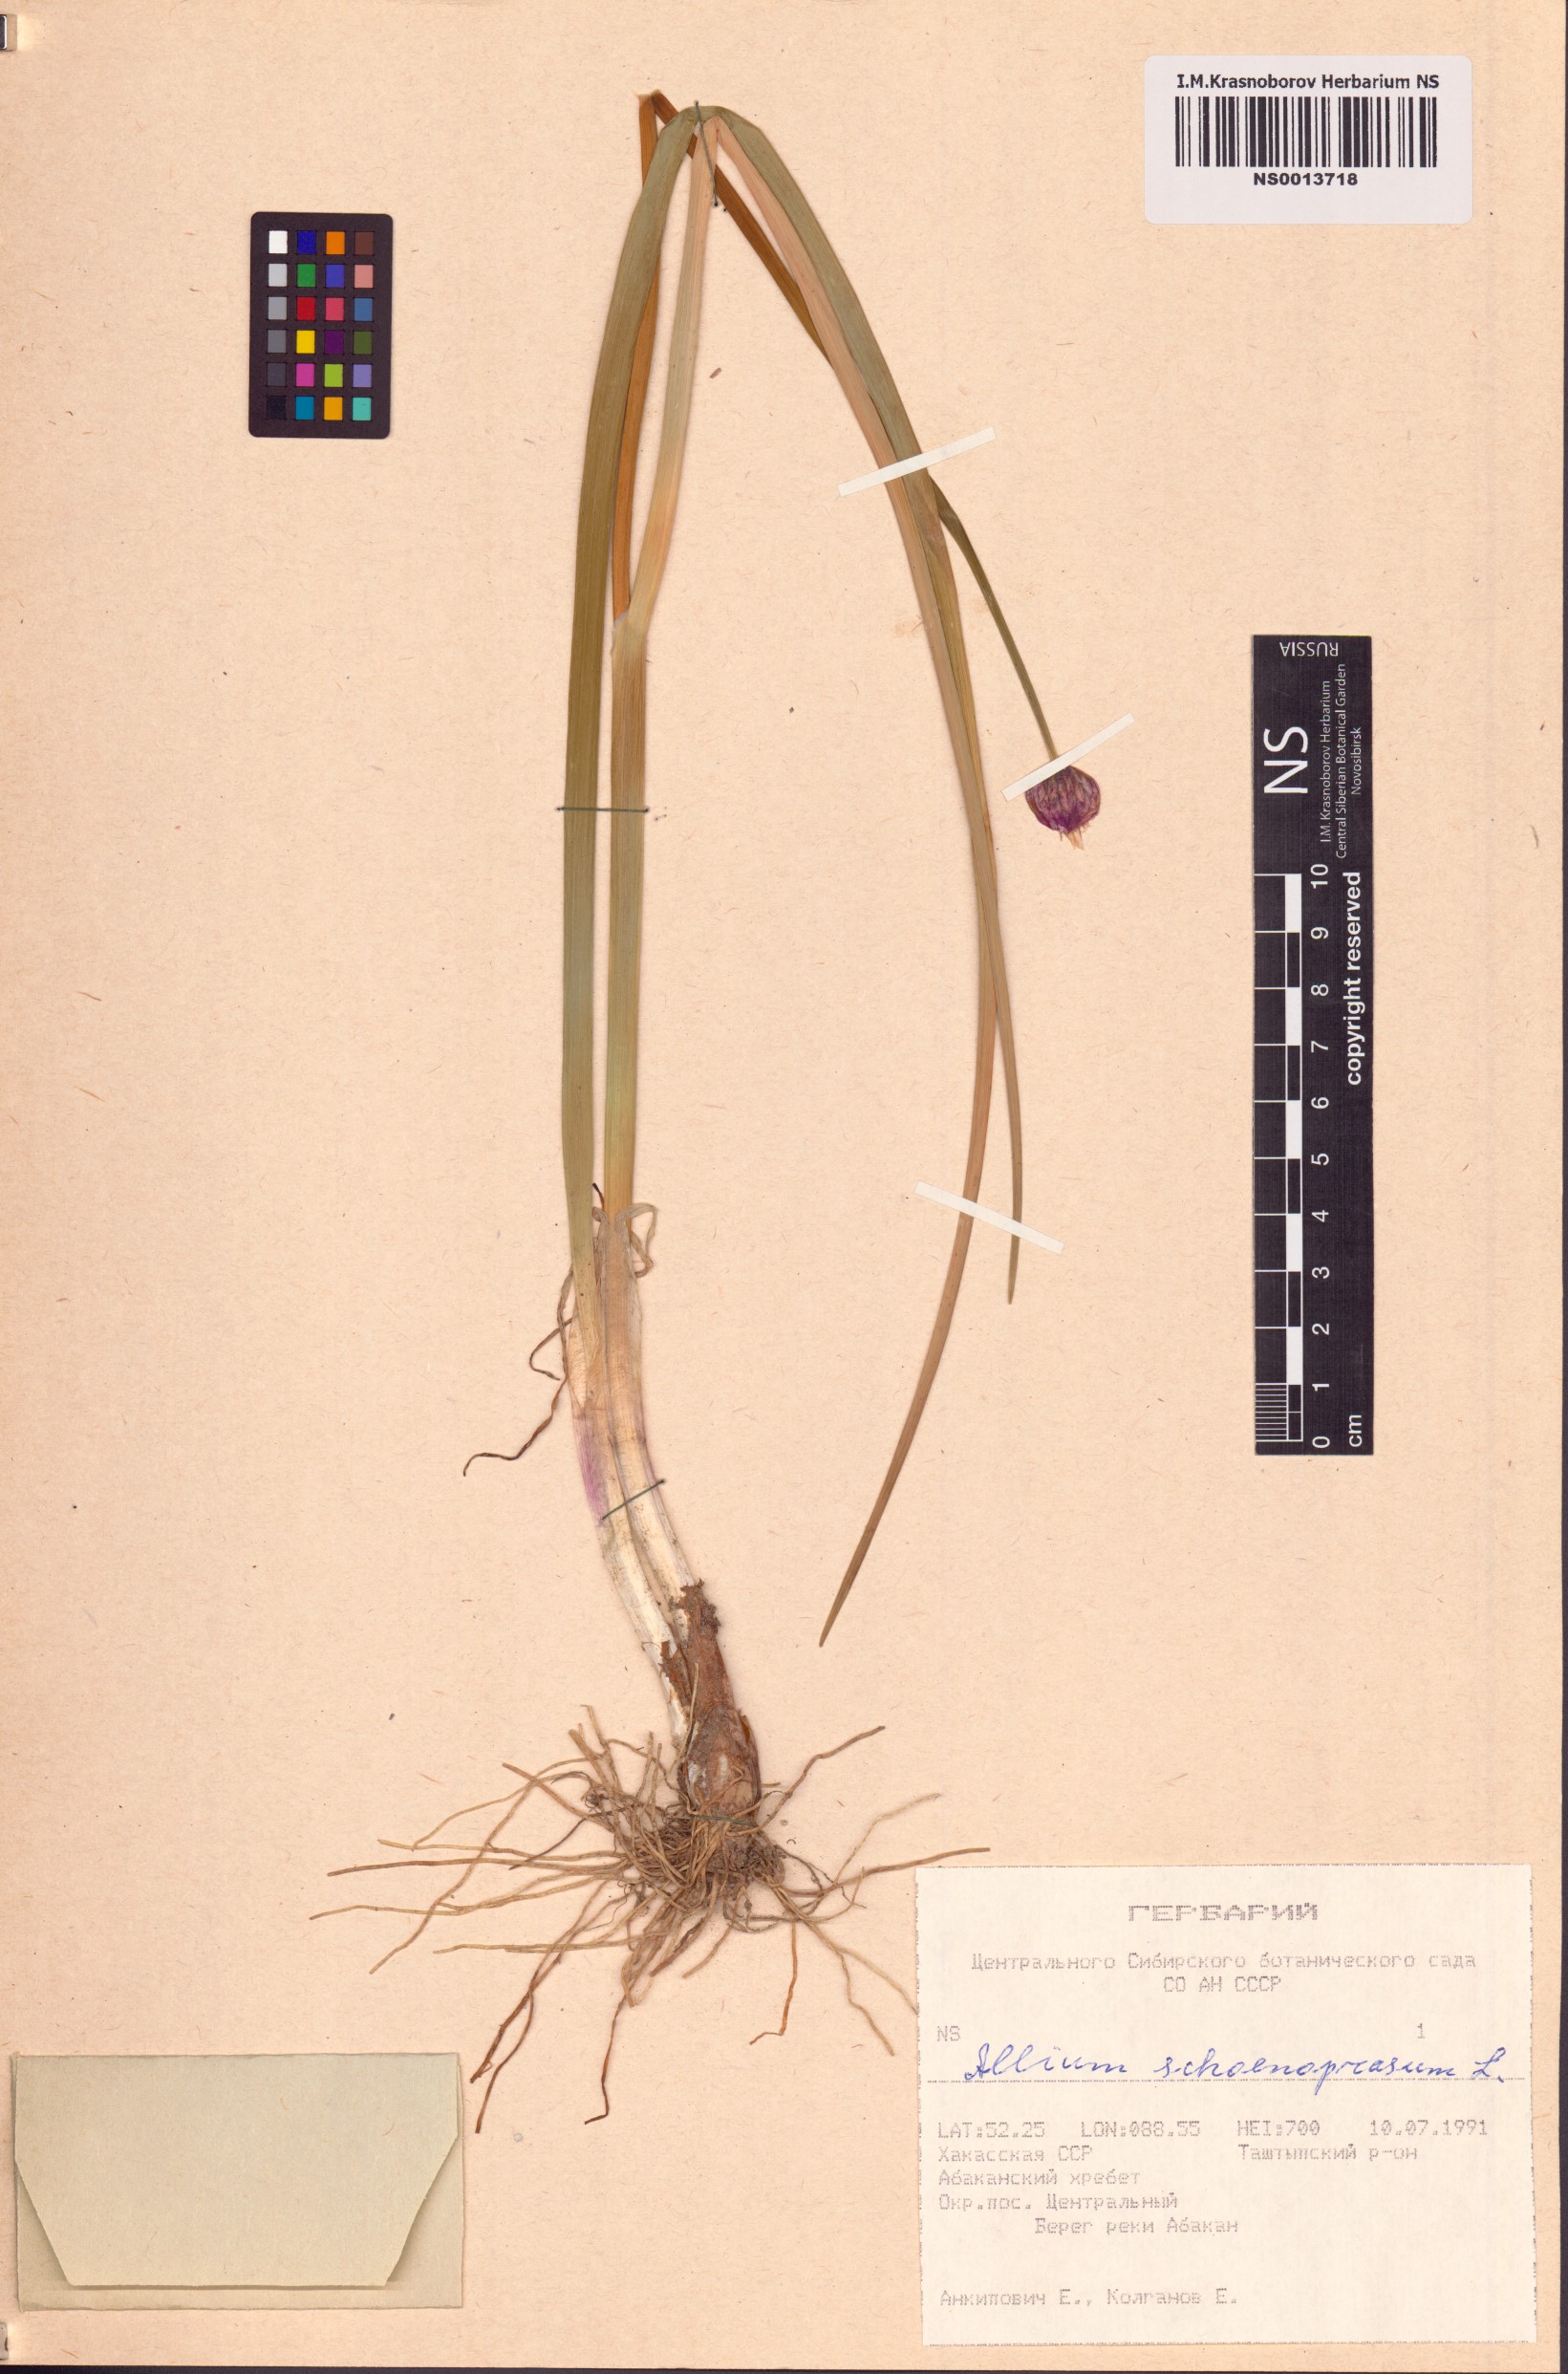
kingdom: Plantae
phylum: Tracheophyta
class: Liliopsida
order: Asparagales
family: Amaryllidaceae
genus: Allium
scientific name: Allium schoenoprasum
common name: Chives
